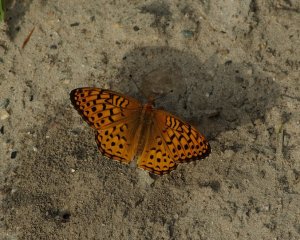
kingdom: Animalia
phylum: Arthropoda
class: Insecta
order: Lepidoptera
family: Nymphalidae
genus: Speyeria
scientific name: Speyeria aphrodite
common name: Aphrodite Fritillary
